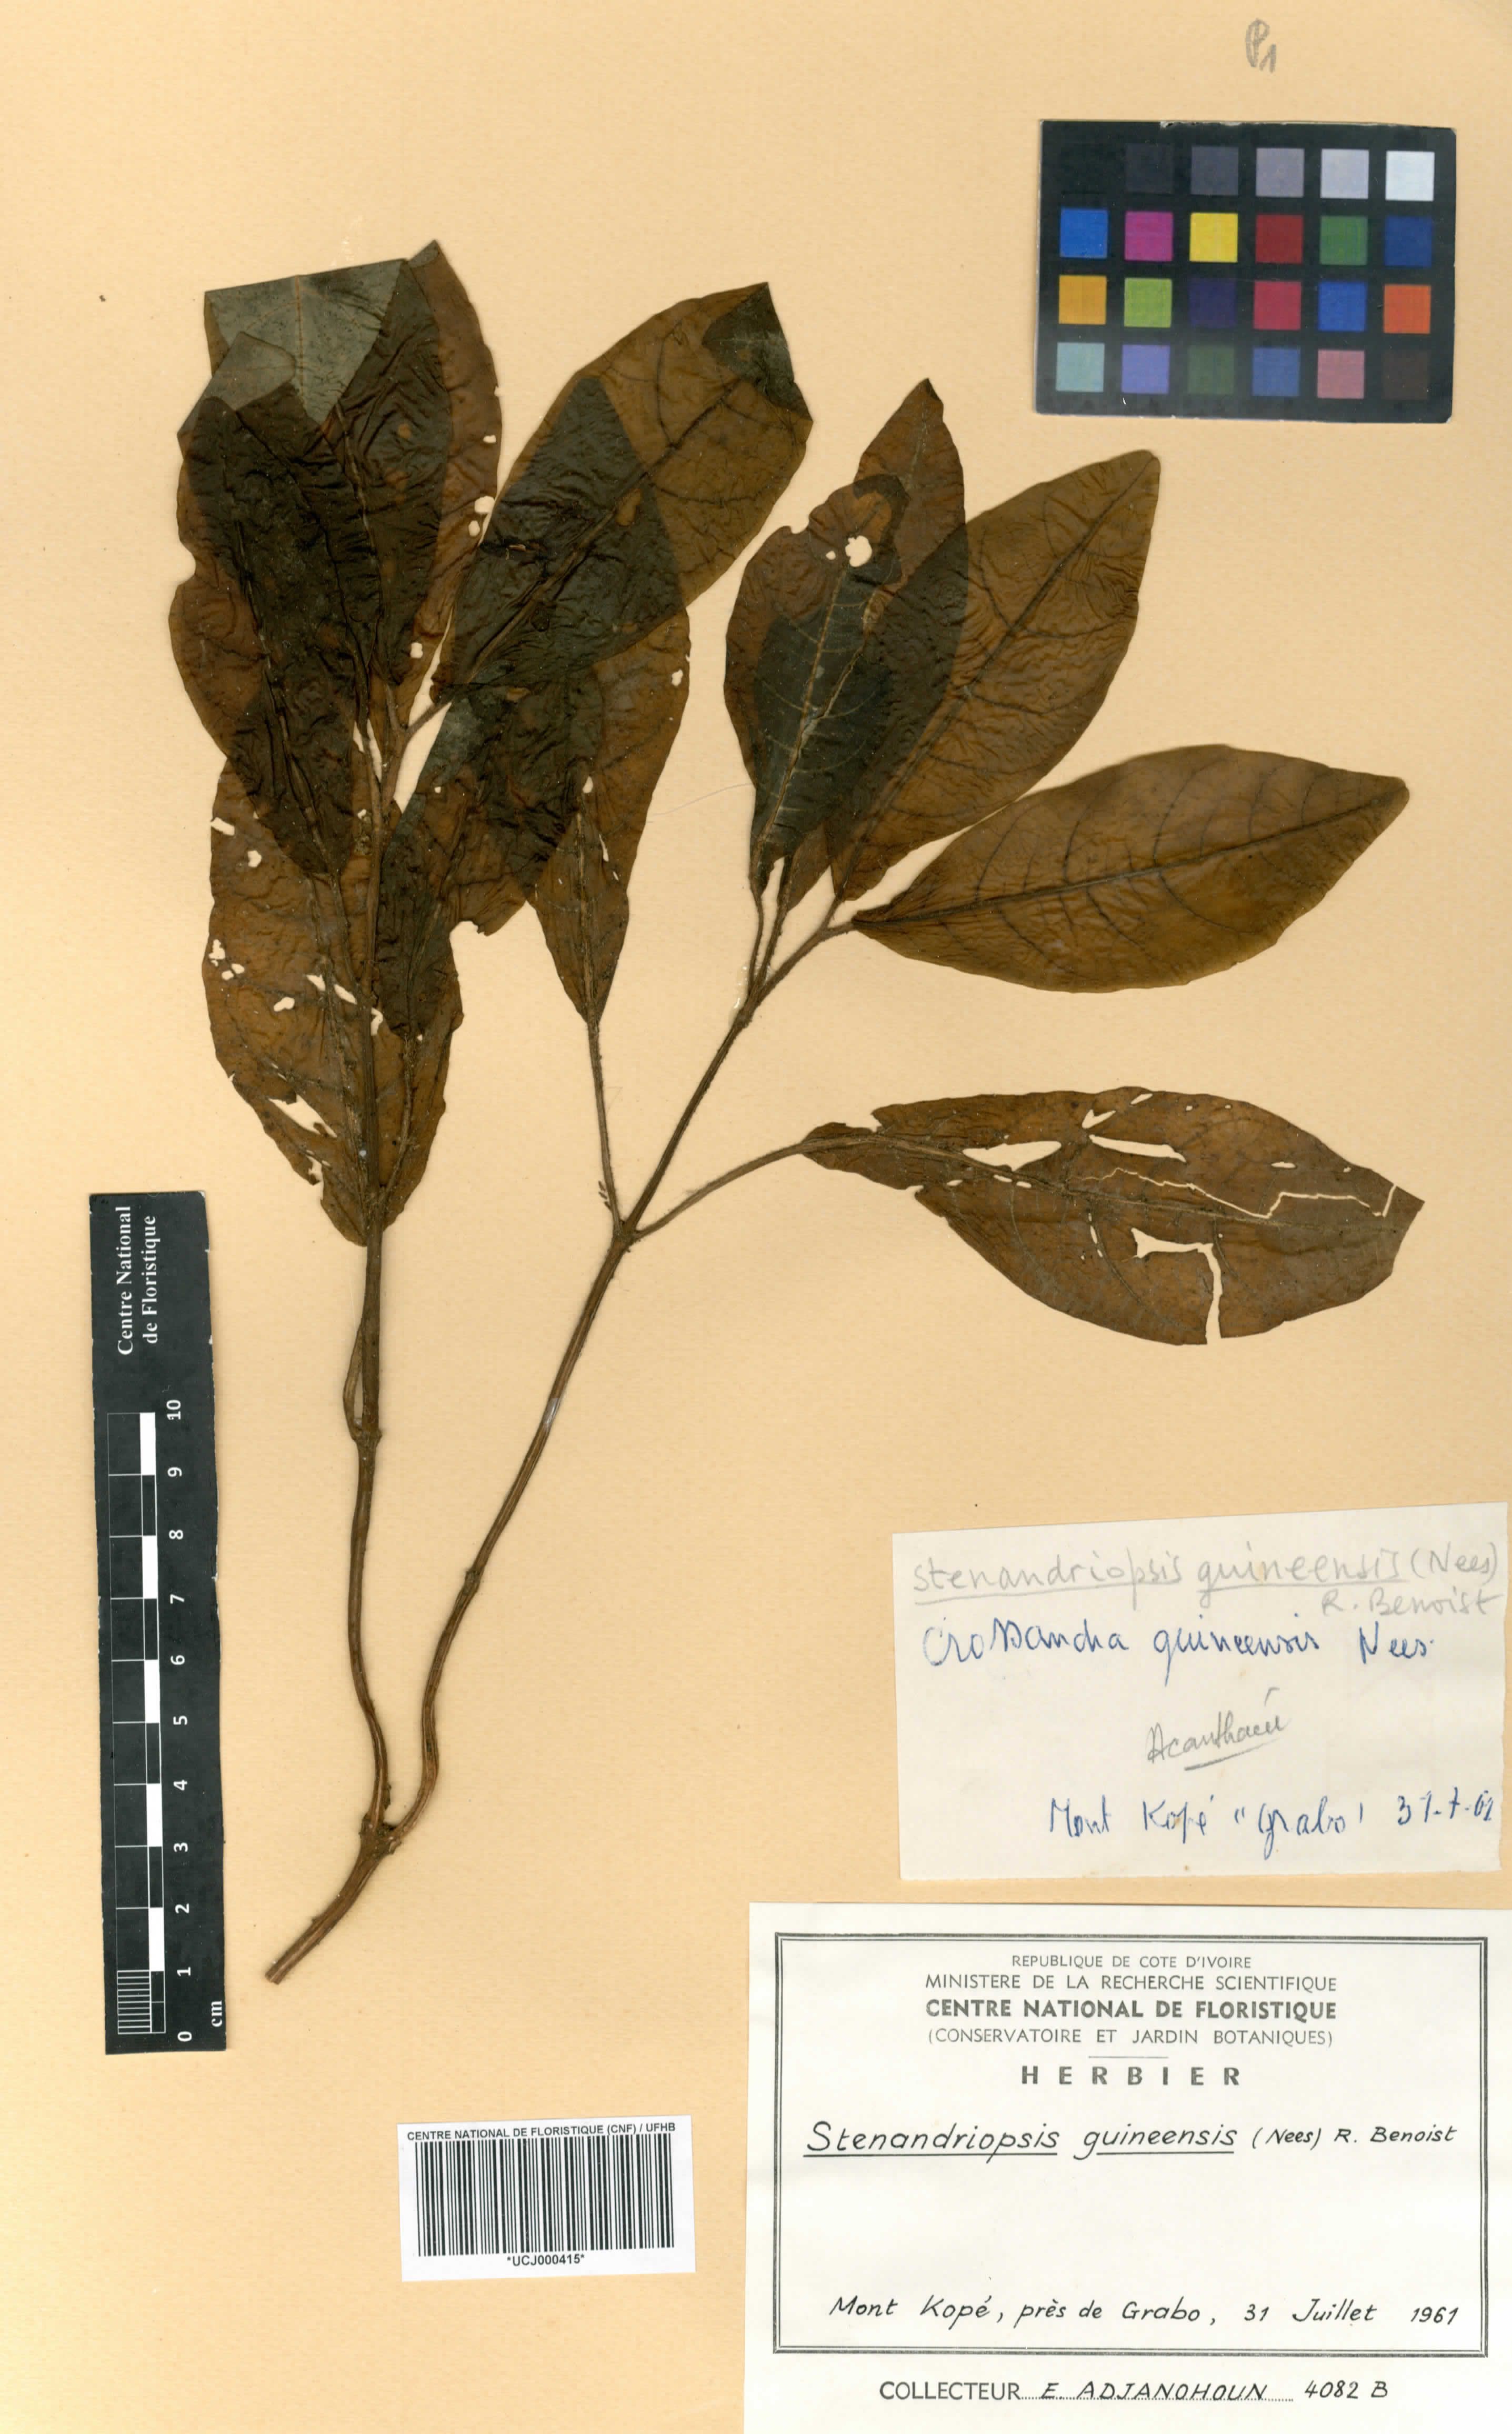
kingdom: Plantae
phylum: Tracheophyta
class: Magnoliopsida
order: Lamiales
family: Acanthaceae
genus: Stenandriopsis
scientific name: Stenandriopsis guineensis
